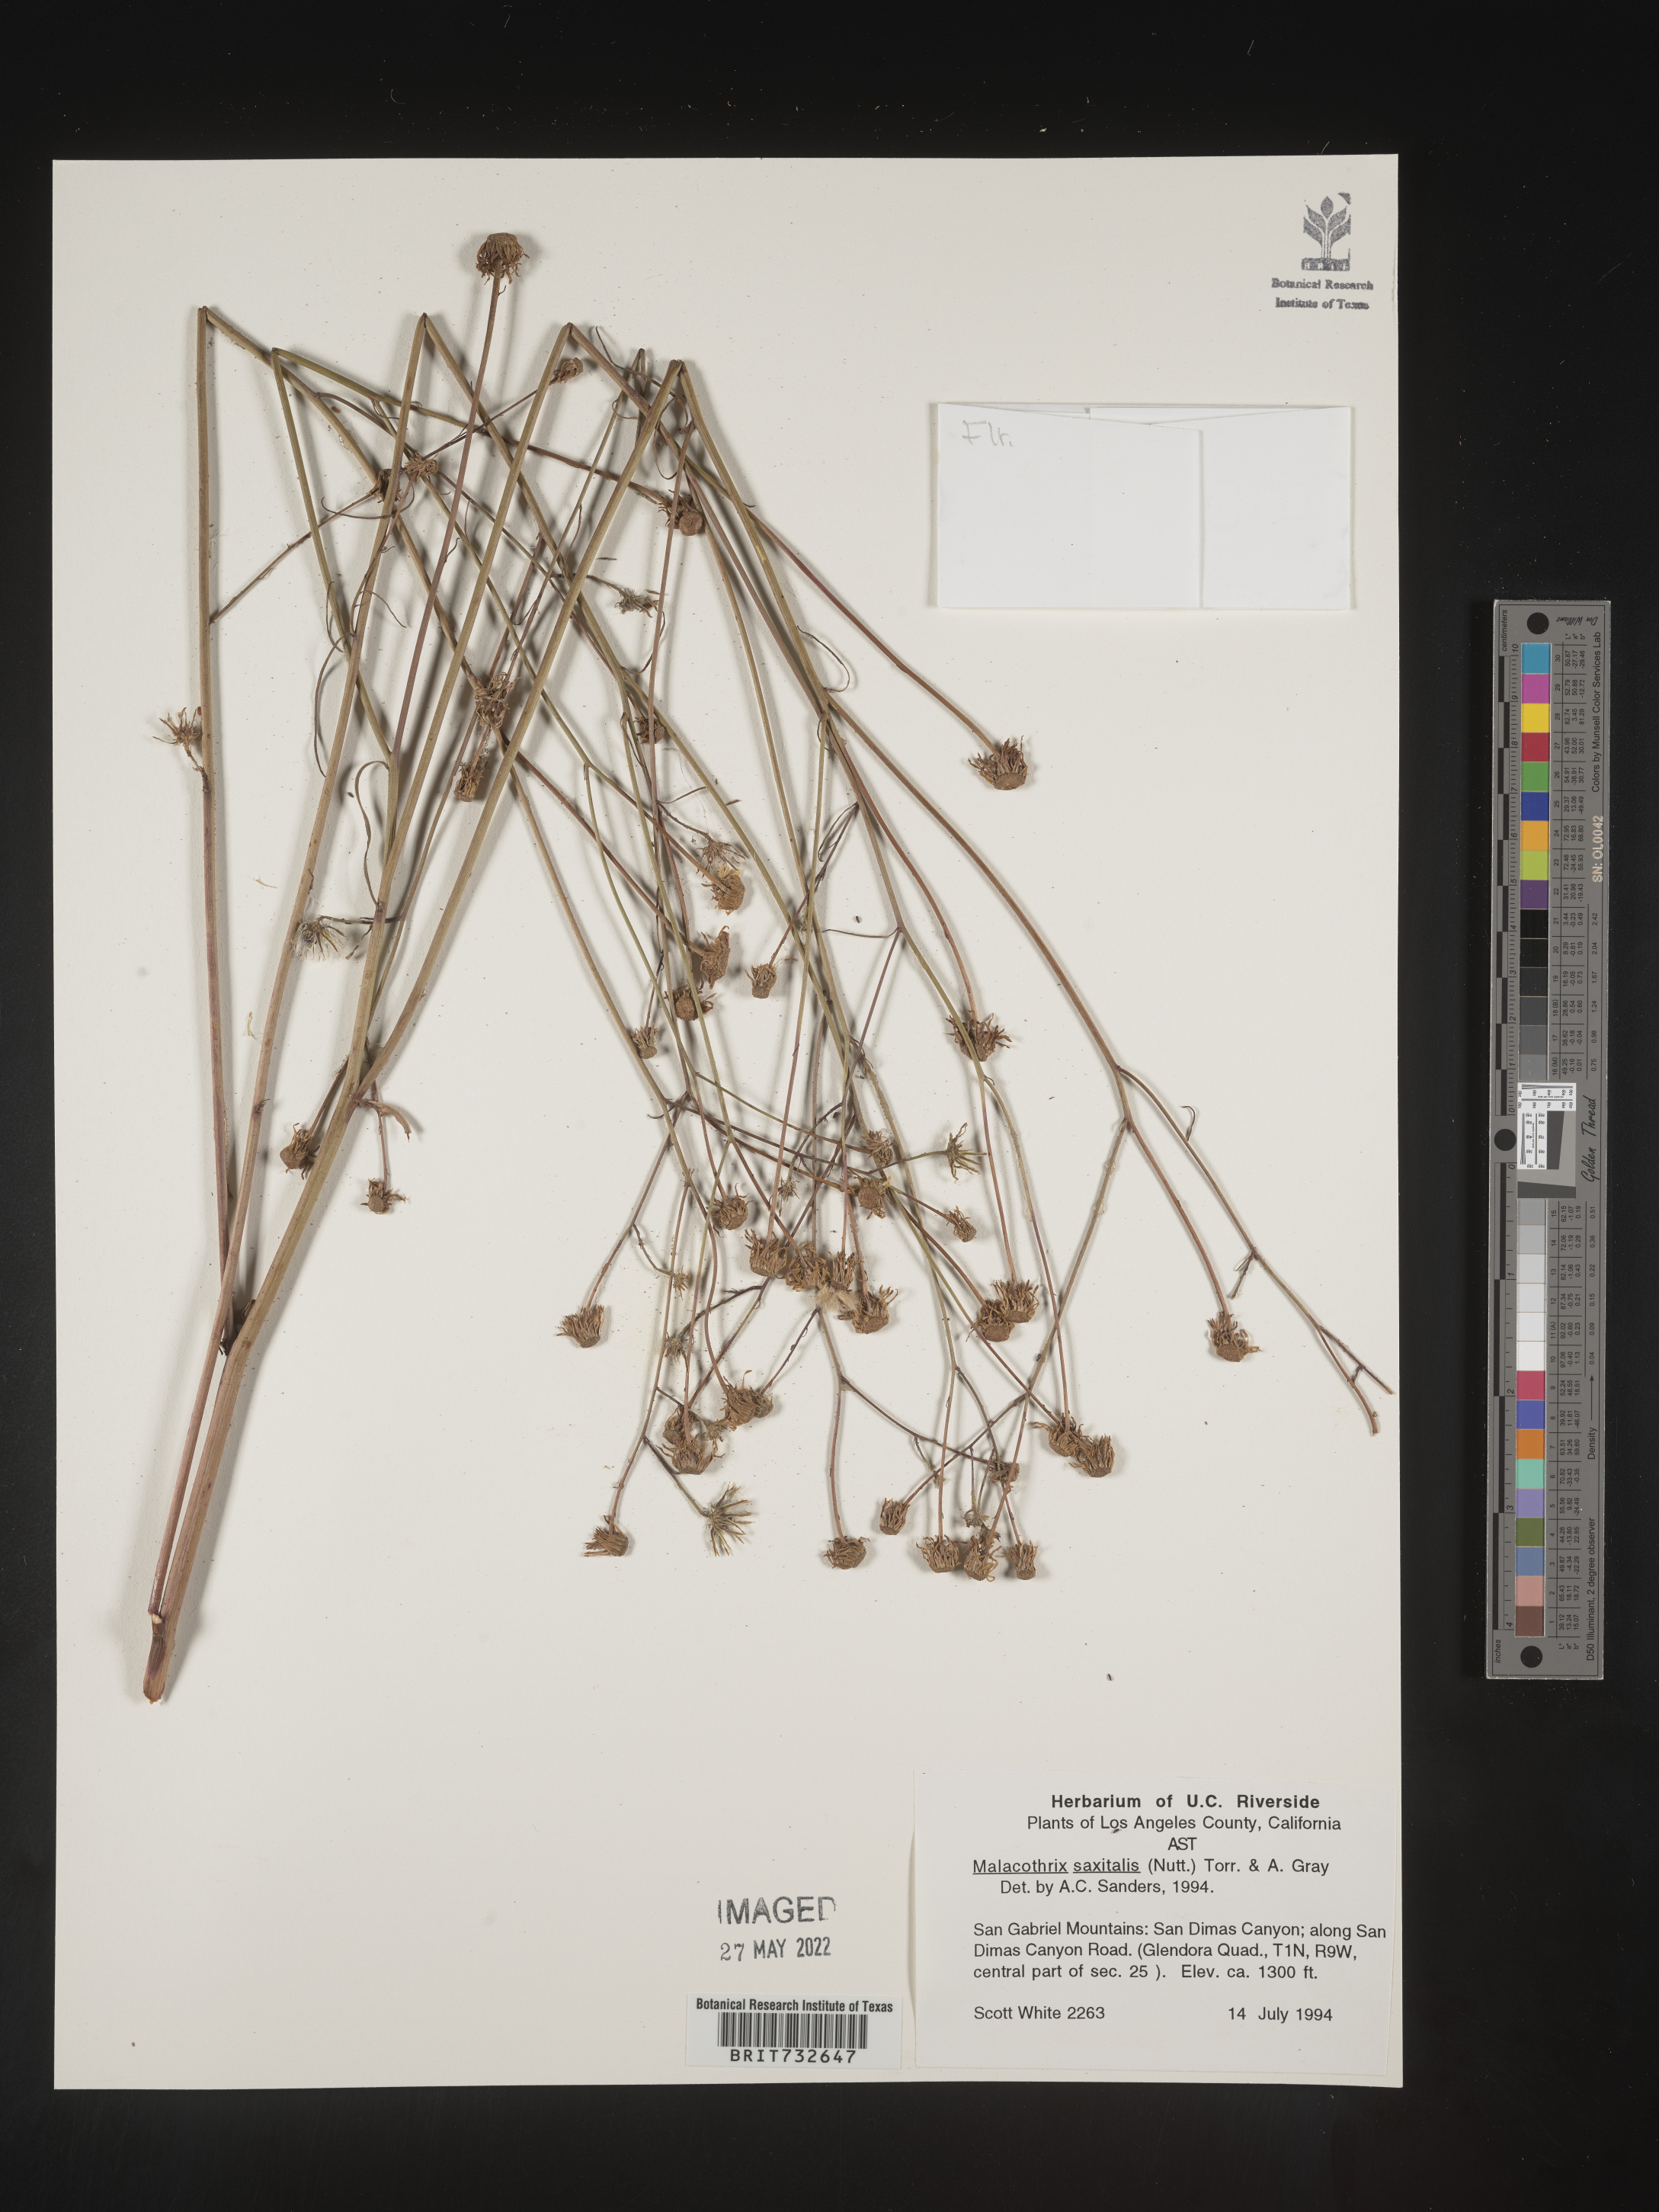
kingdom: Plantae
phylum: Tracheophyta
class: Magnoliopsida
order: Asterales
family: Asteraceae
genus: Malacothrix
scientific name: Malacothrix saxatilis
